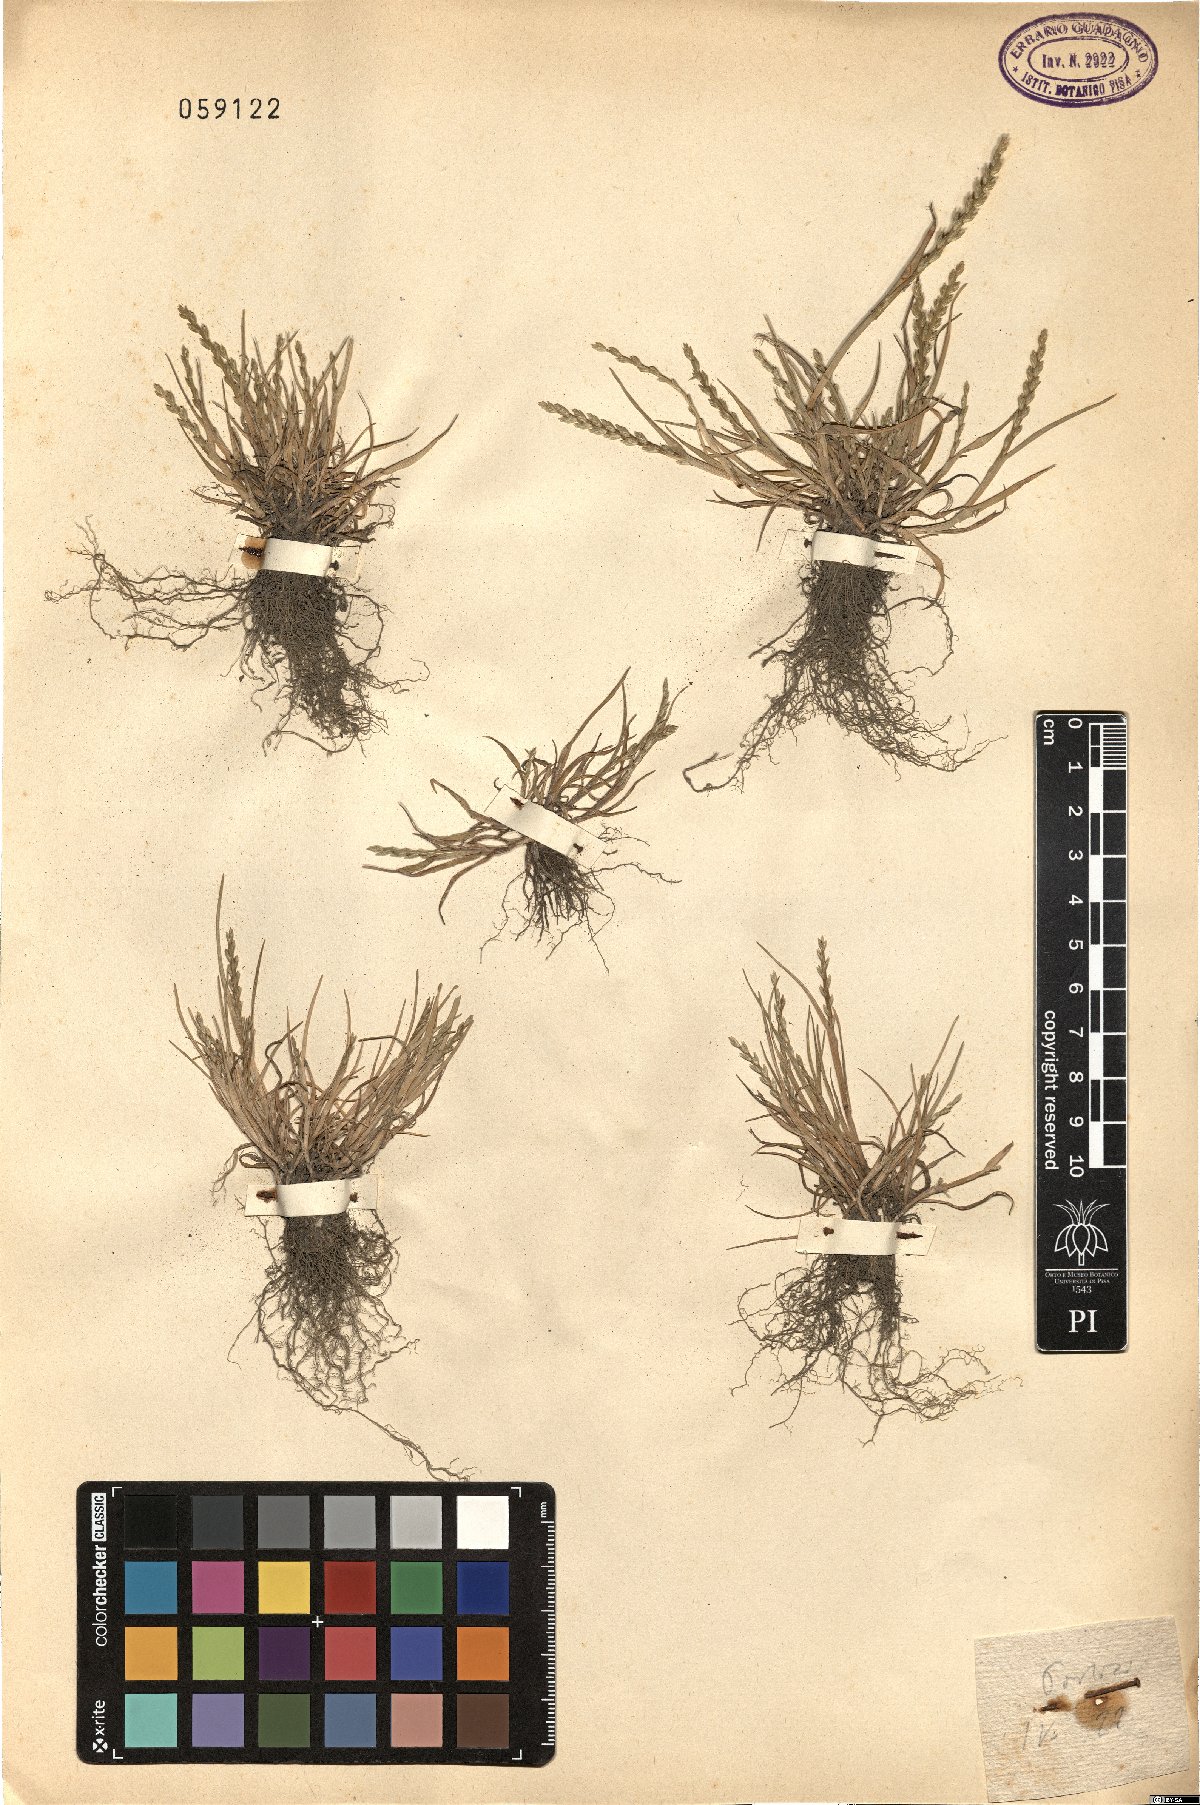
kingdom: Plantae
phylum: Tracheophyta
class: Liliopsida
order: Poales
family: Poaceae
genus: Catapodium
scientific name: Catapodium pauciflorum
